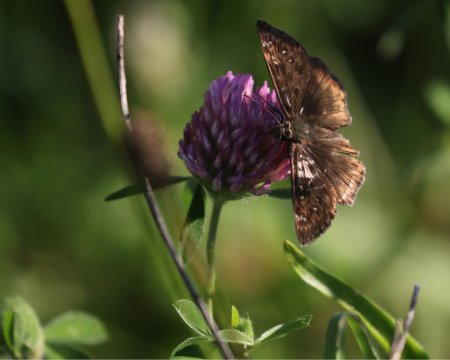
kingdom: Animalia
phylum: Arthropoda
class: Insecta
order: Lepidoptera
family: Hesperiidae
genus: Gesta
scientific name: Gesta
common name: Horace's Duskywing
